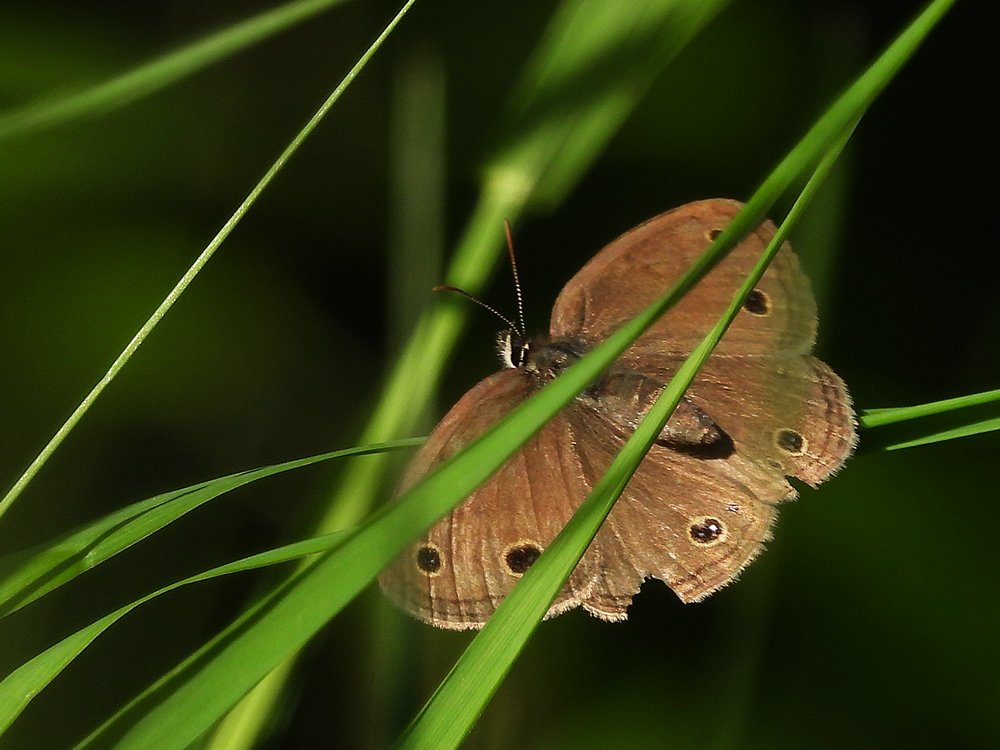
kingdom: Animalia
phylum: Arthropoda
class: Insecta
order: Lepidoptera
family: Nymphalidae
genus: Euptychia
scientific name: Euptychia cymela
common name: Little Wood Satyr
